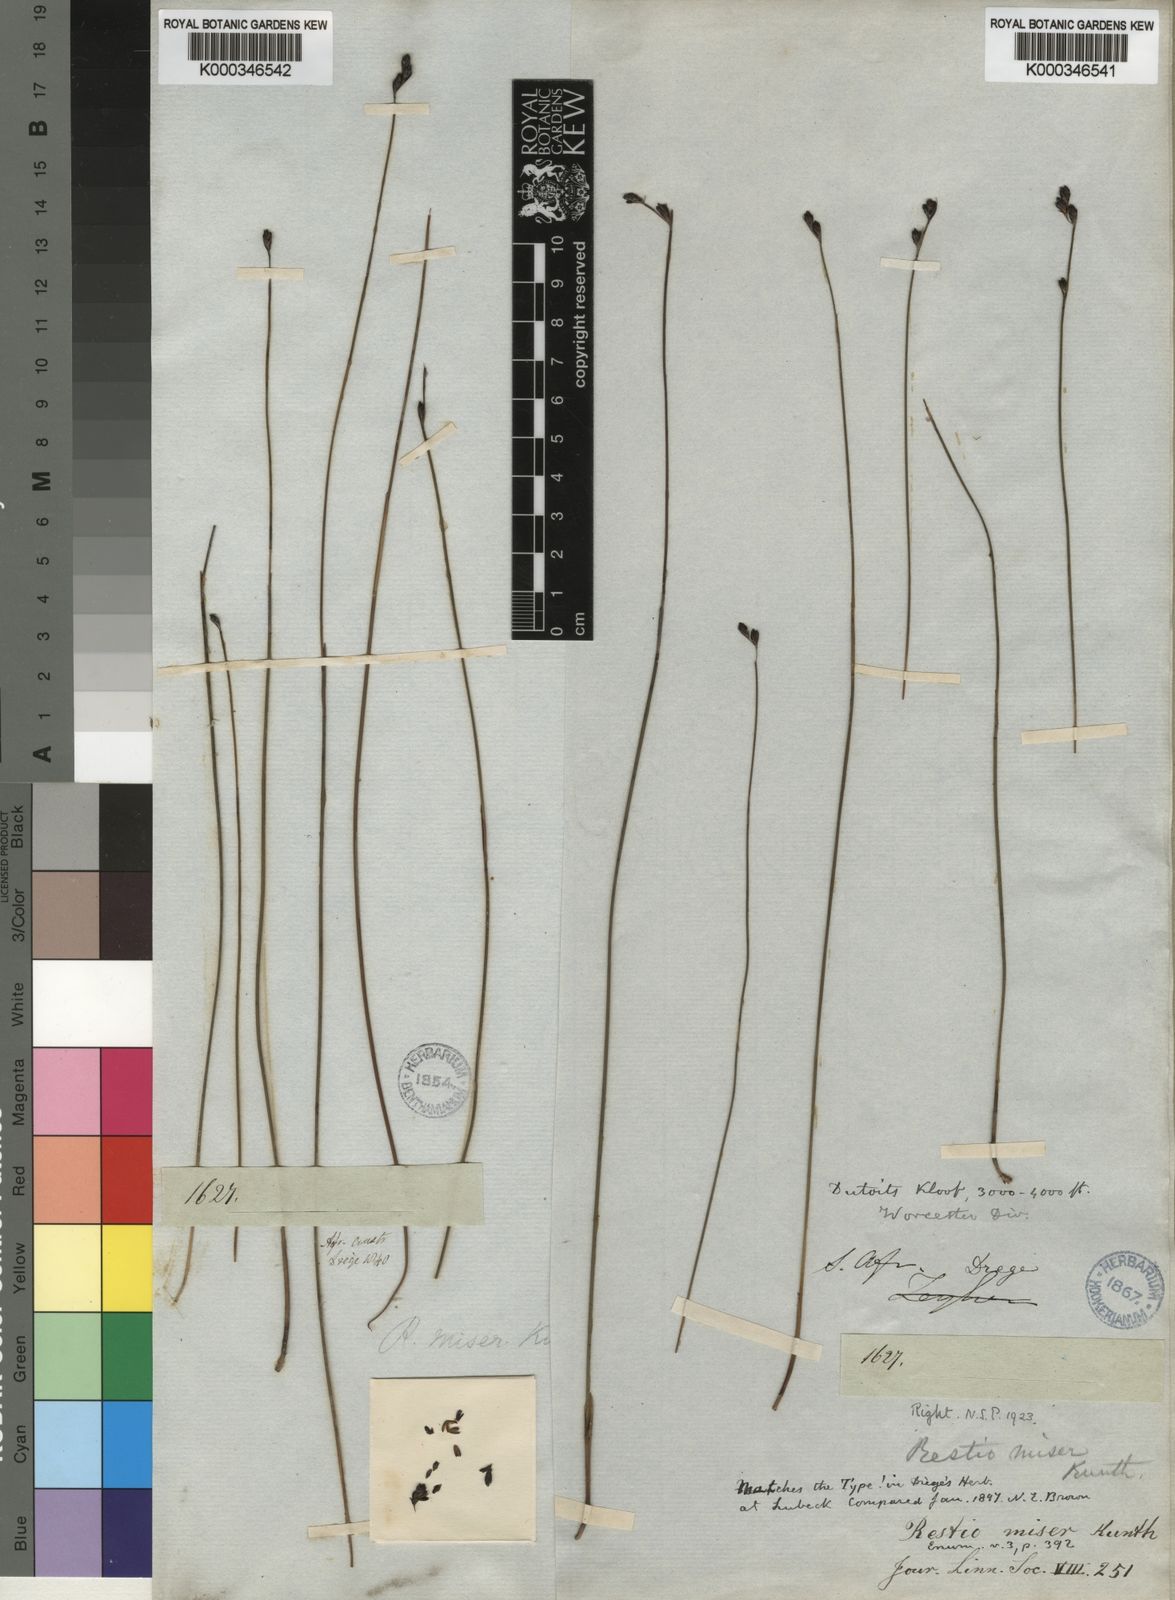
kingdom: Plantae
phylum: Tracheophyta
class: Liliopsida
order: Poales
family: Restionaceae
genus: Restio
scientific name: Restio miser
